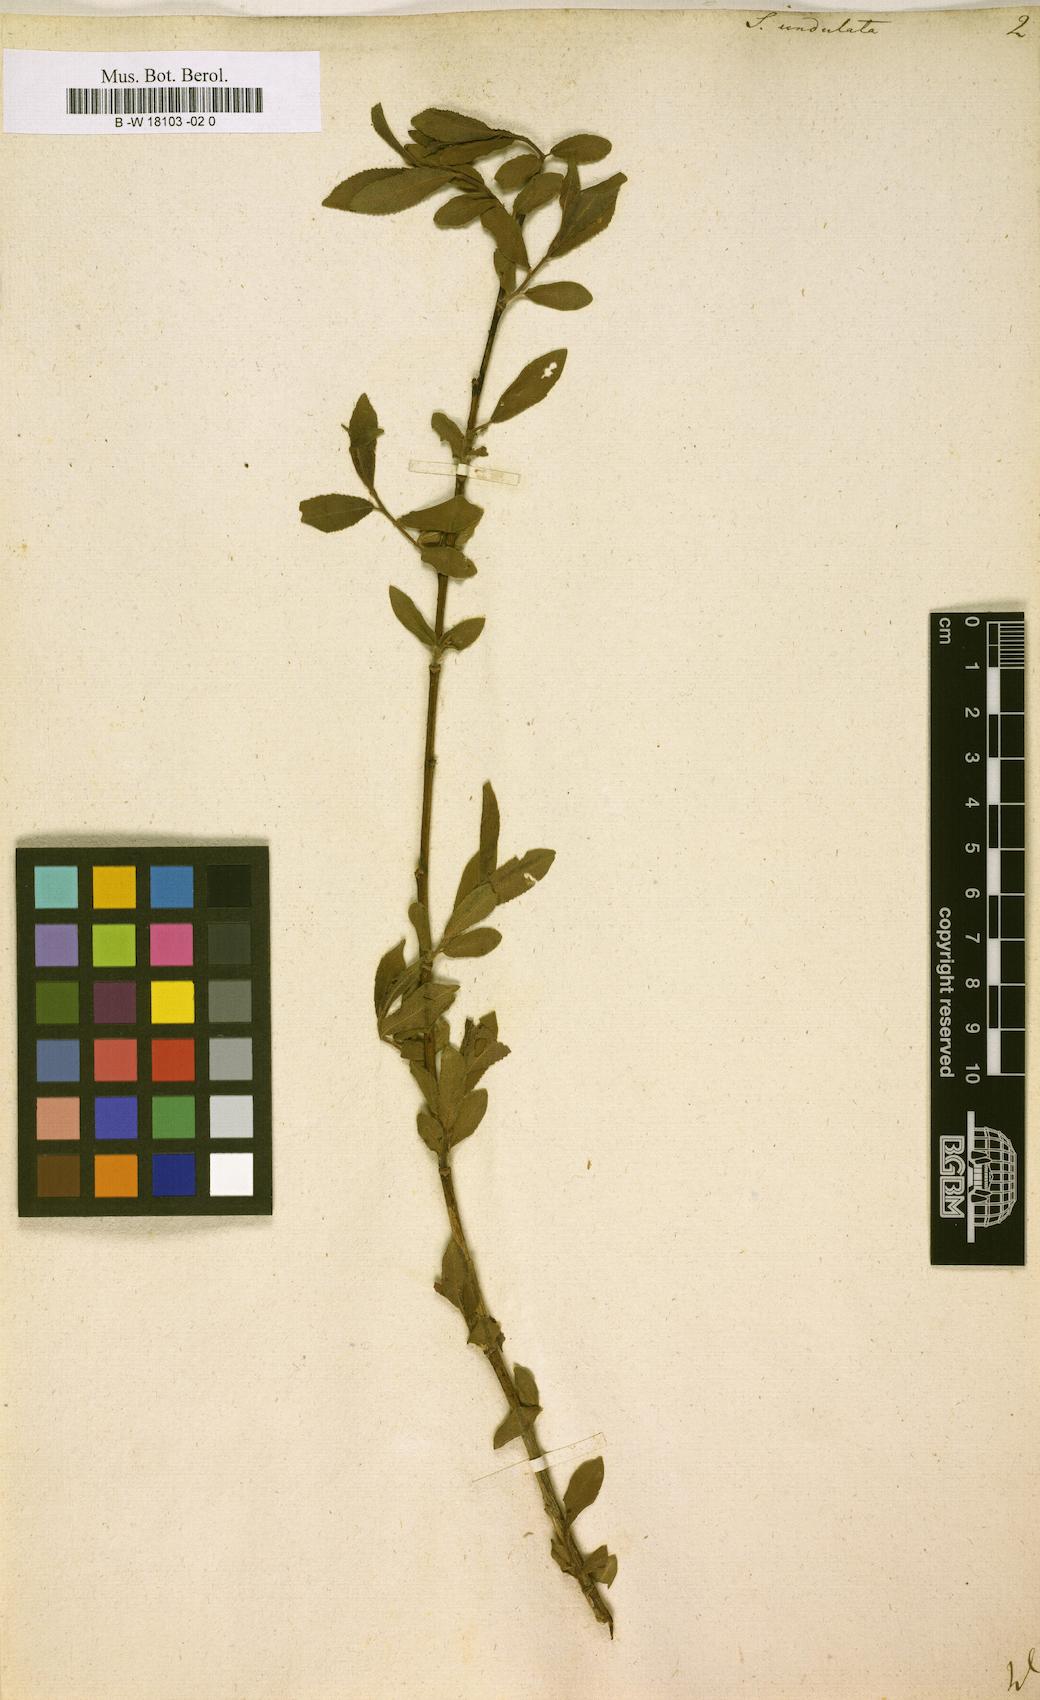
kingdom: Plantae
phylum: Tracheophyta
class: Magnoliopsida
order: Malpighiales
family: Salicaceae
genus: Salix
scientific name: Salix undulata
